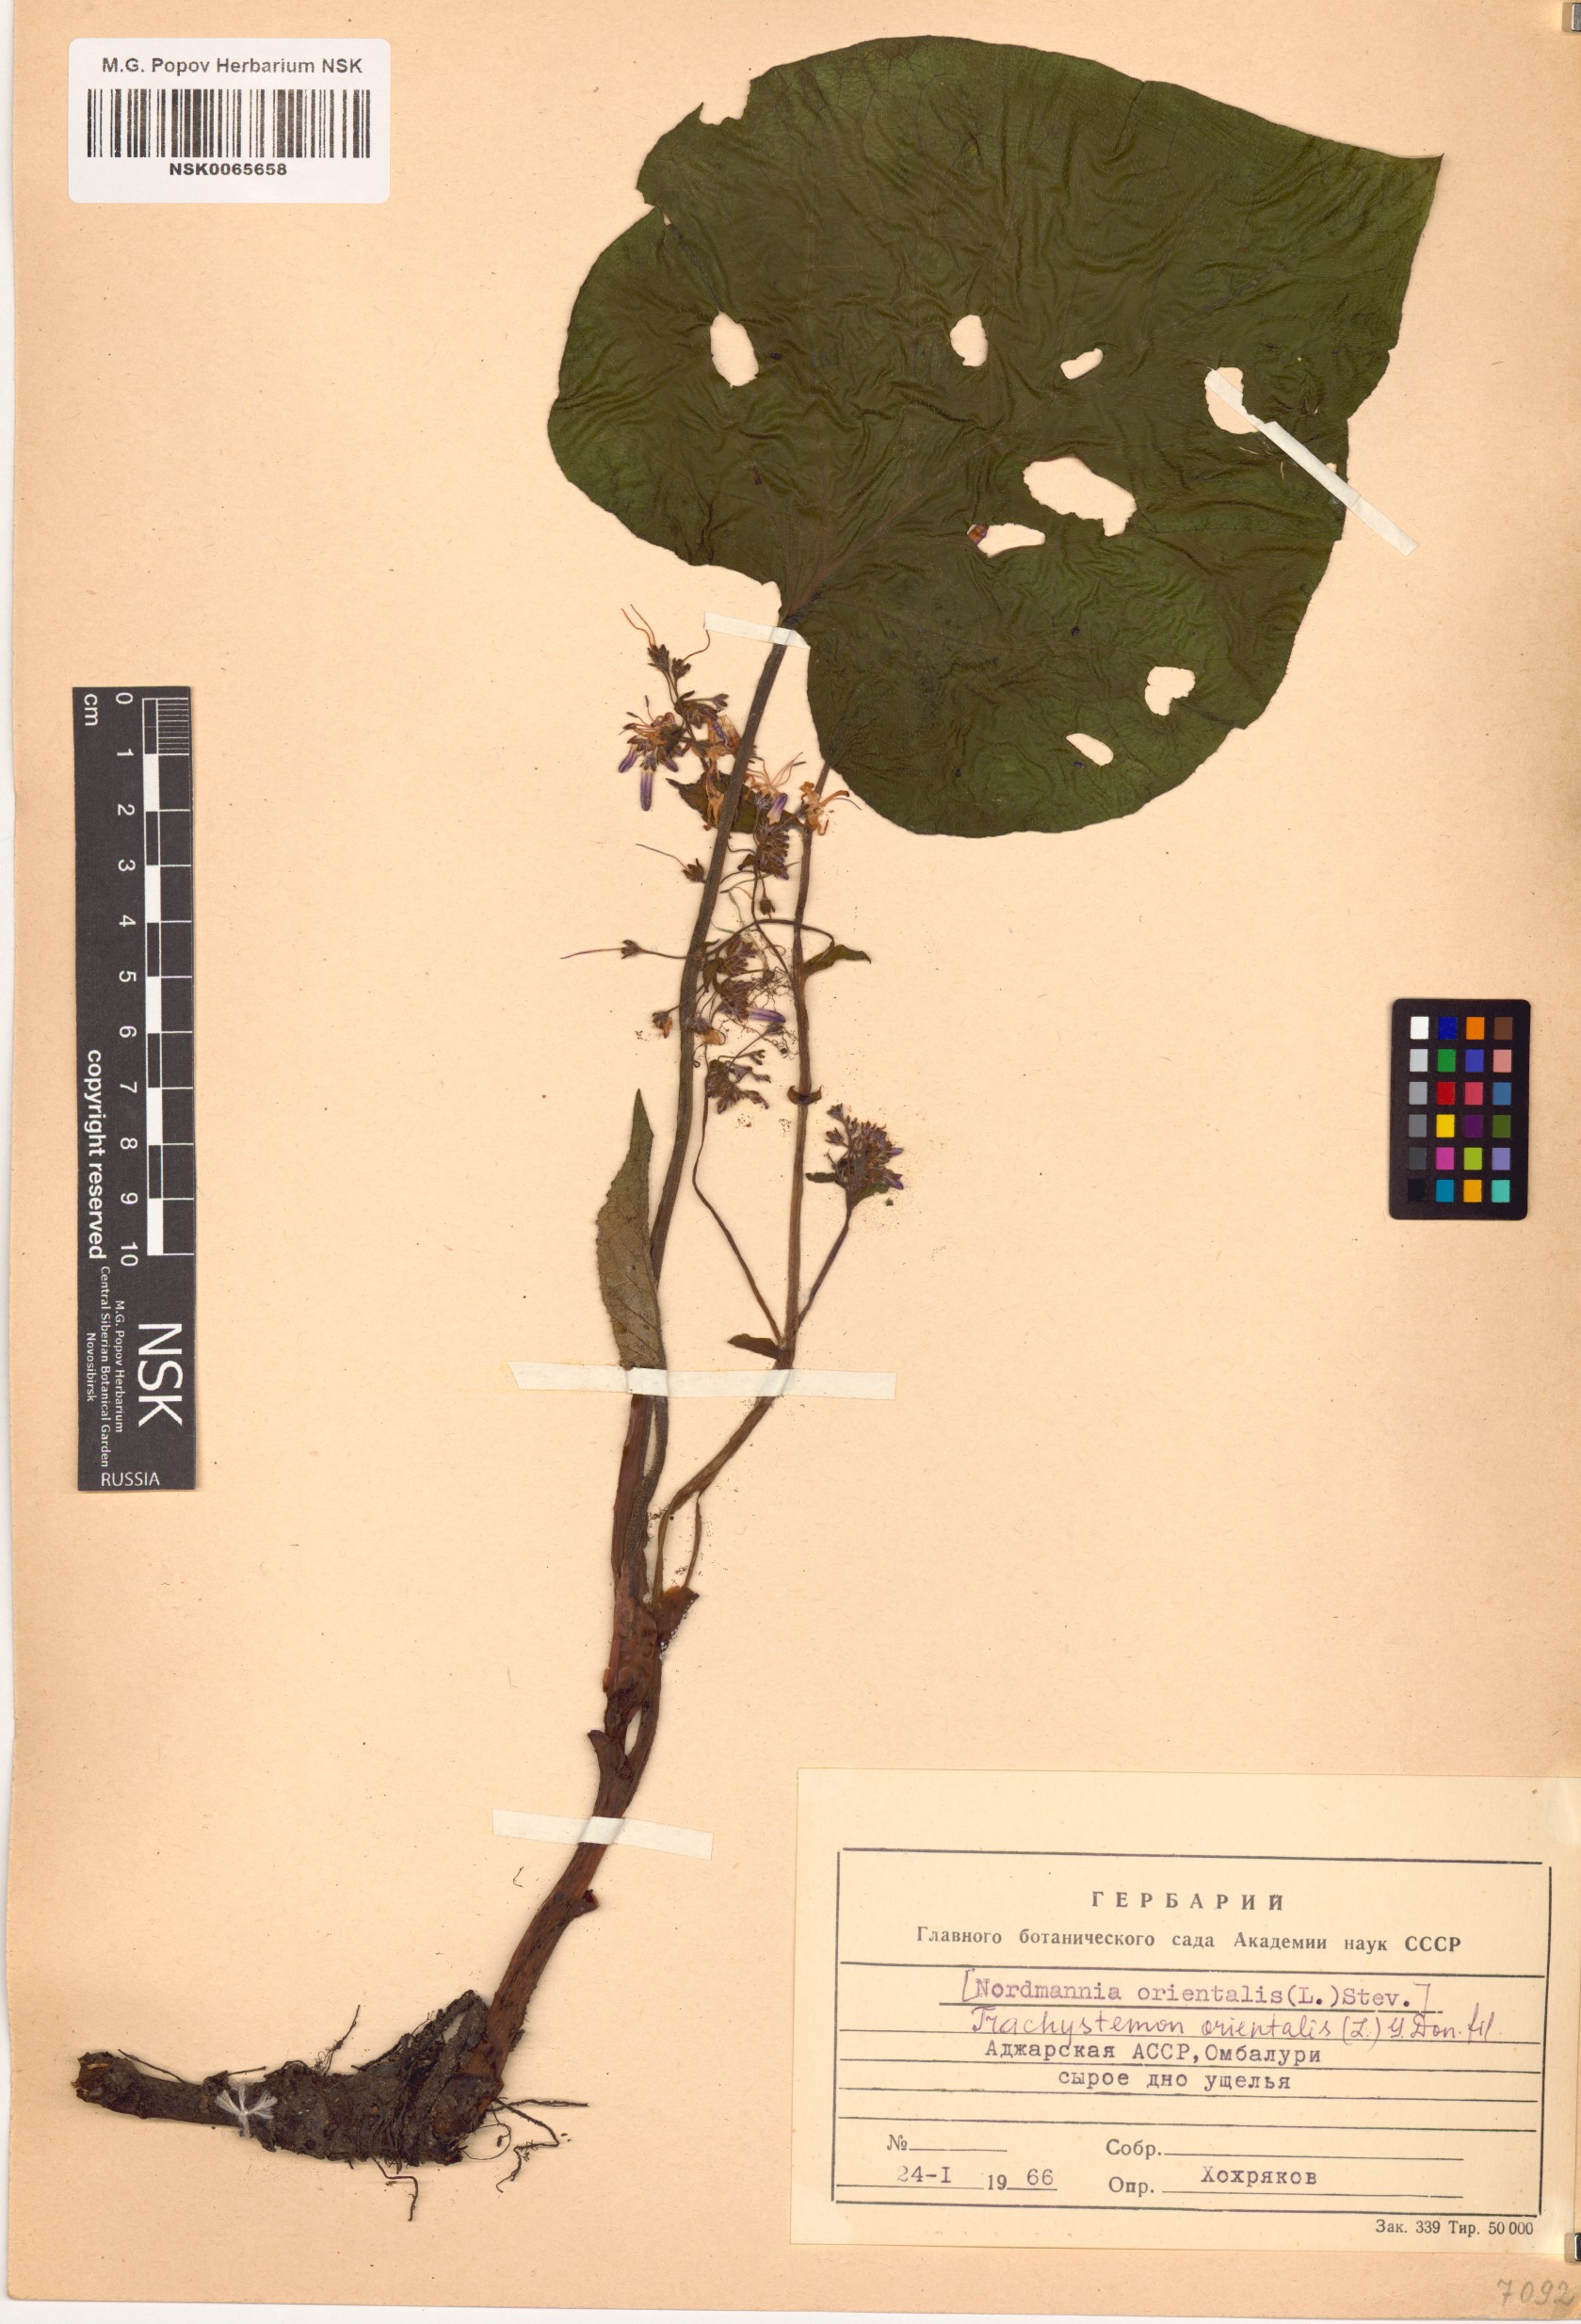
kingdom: Plantae
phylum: Tracheophyta
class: Magnoliopsida
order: Boraginales
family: Boraginaceae
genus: Trachystemon
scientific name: Trachystemon orientale
